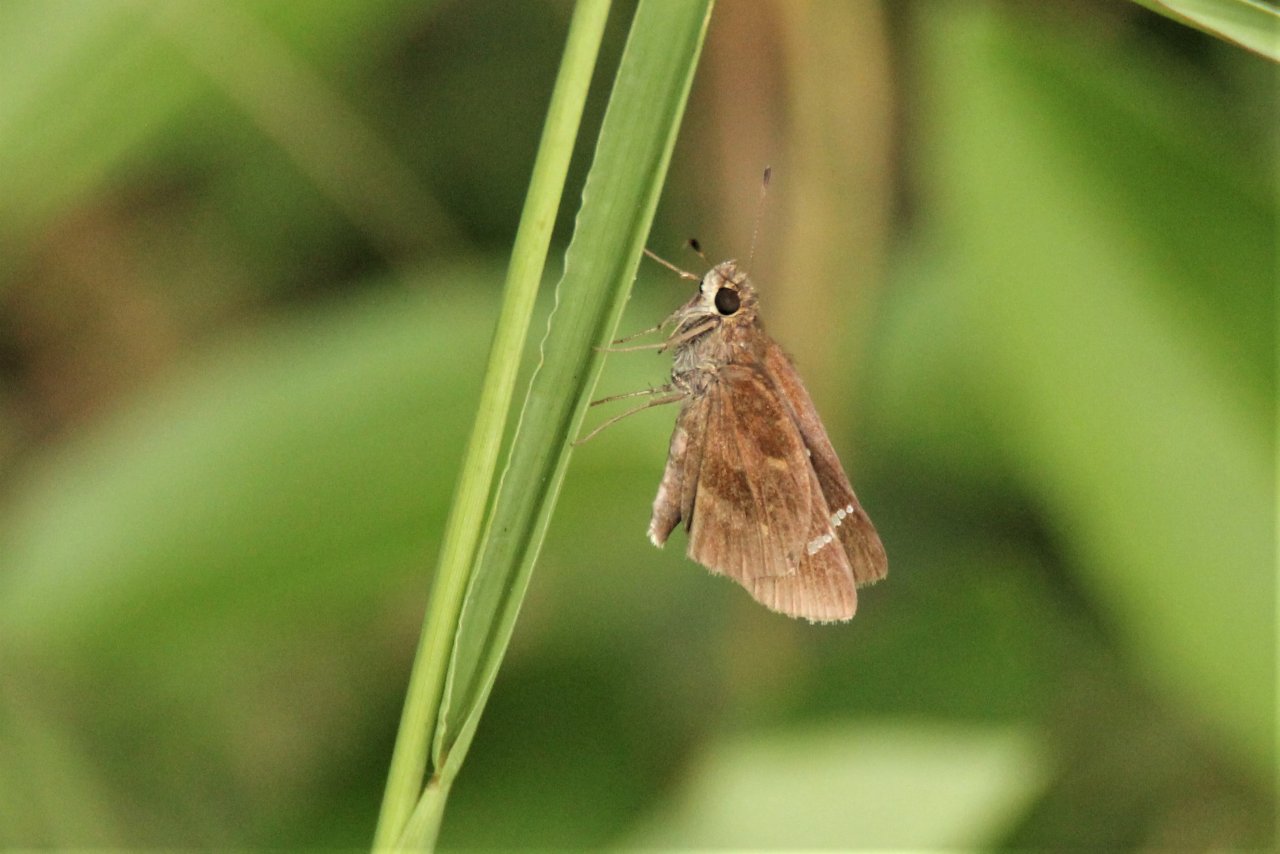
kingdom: Animalia
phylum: Arthropoda
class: Insecta
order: Lepidoptera
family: Hesperiidae
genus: Lerema
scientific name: Lerema accius
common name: Clouded Skipper
